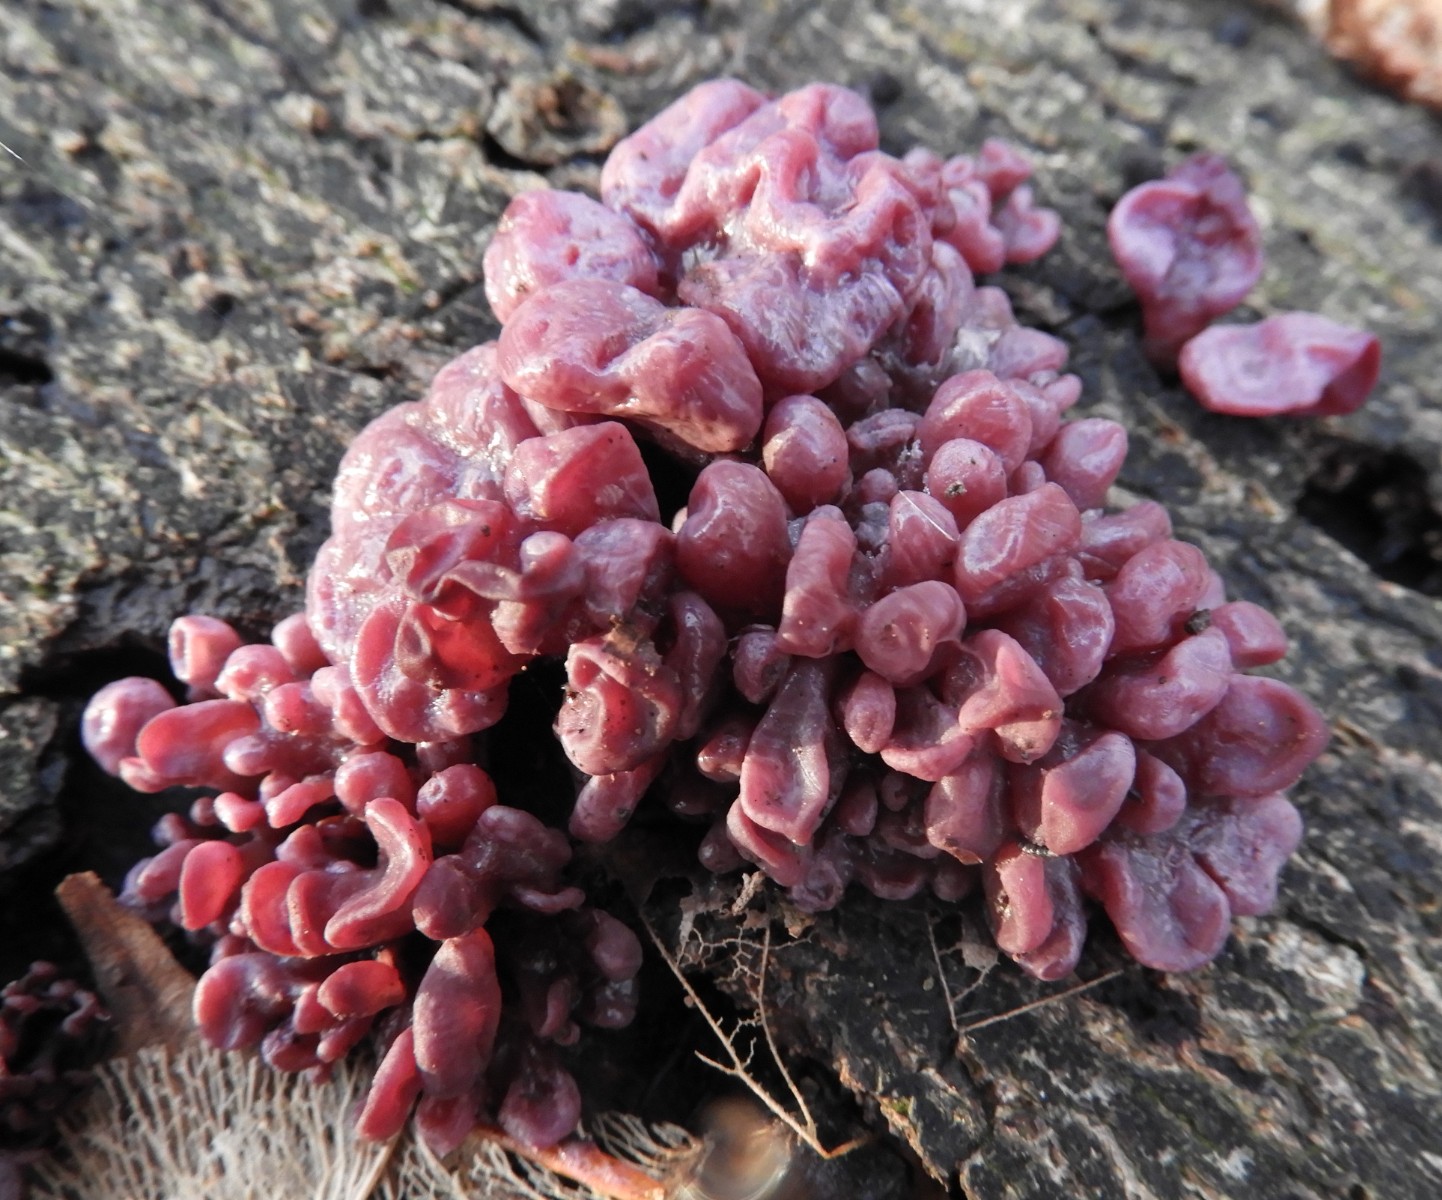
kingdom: Fungi
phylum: Ascomycota
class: Leotiomycetes
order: Helotiales
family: Gelatinodiscaceae
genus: Ascocoryne
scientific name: Ascocoryne sarcoides
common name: rødlilla sejskive
